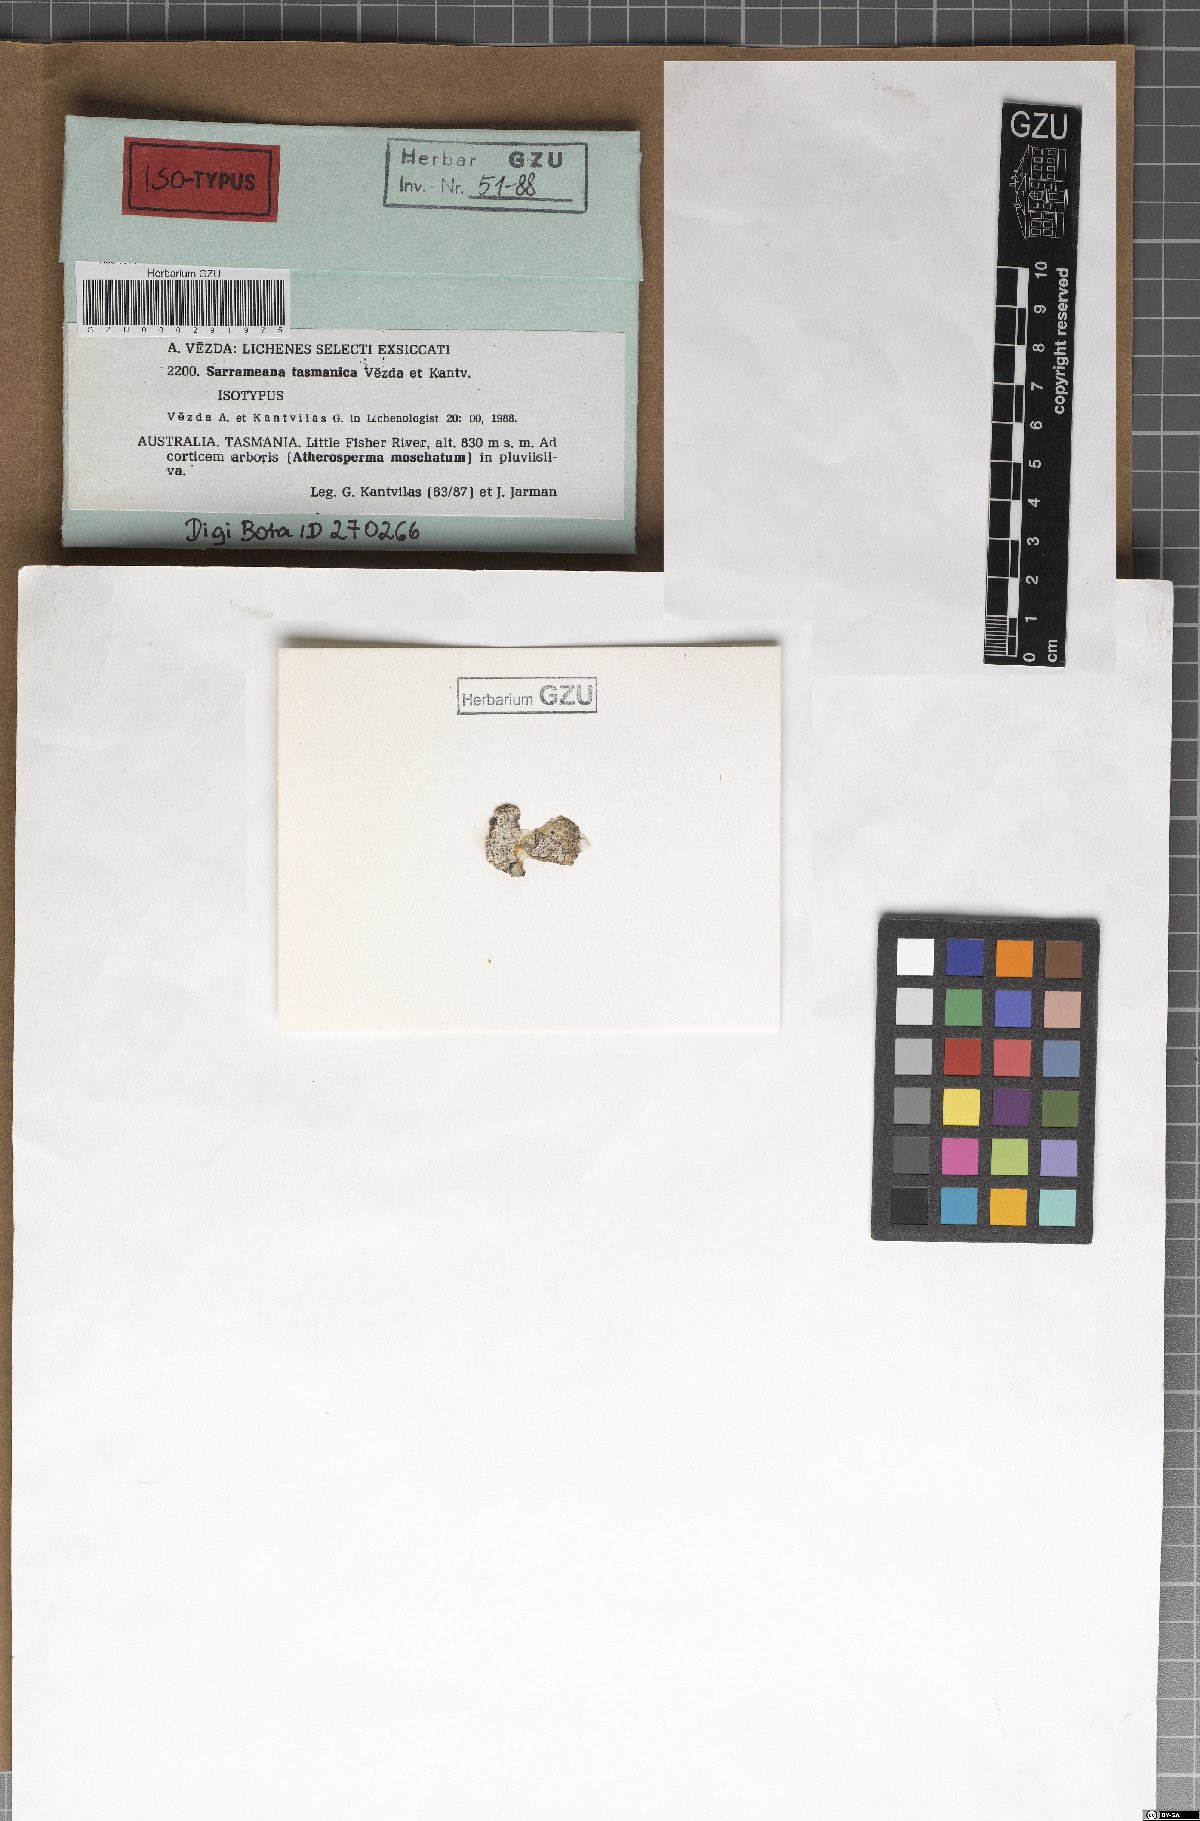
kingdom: Fungi
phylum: Ascomycota
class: Lecanoromycetes
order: Lecanorales
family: Sarrameanaceae
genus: Loxospora
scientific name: Loxospora solenospora
